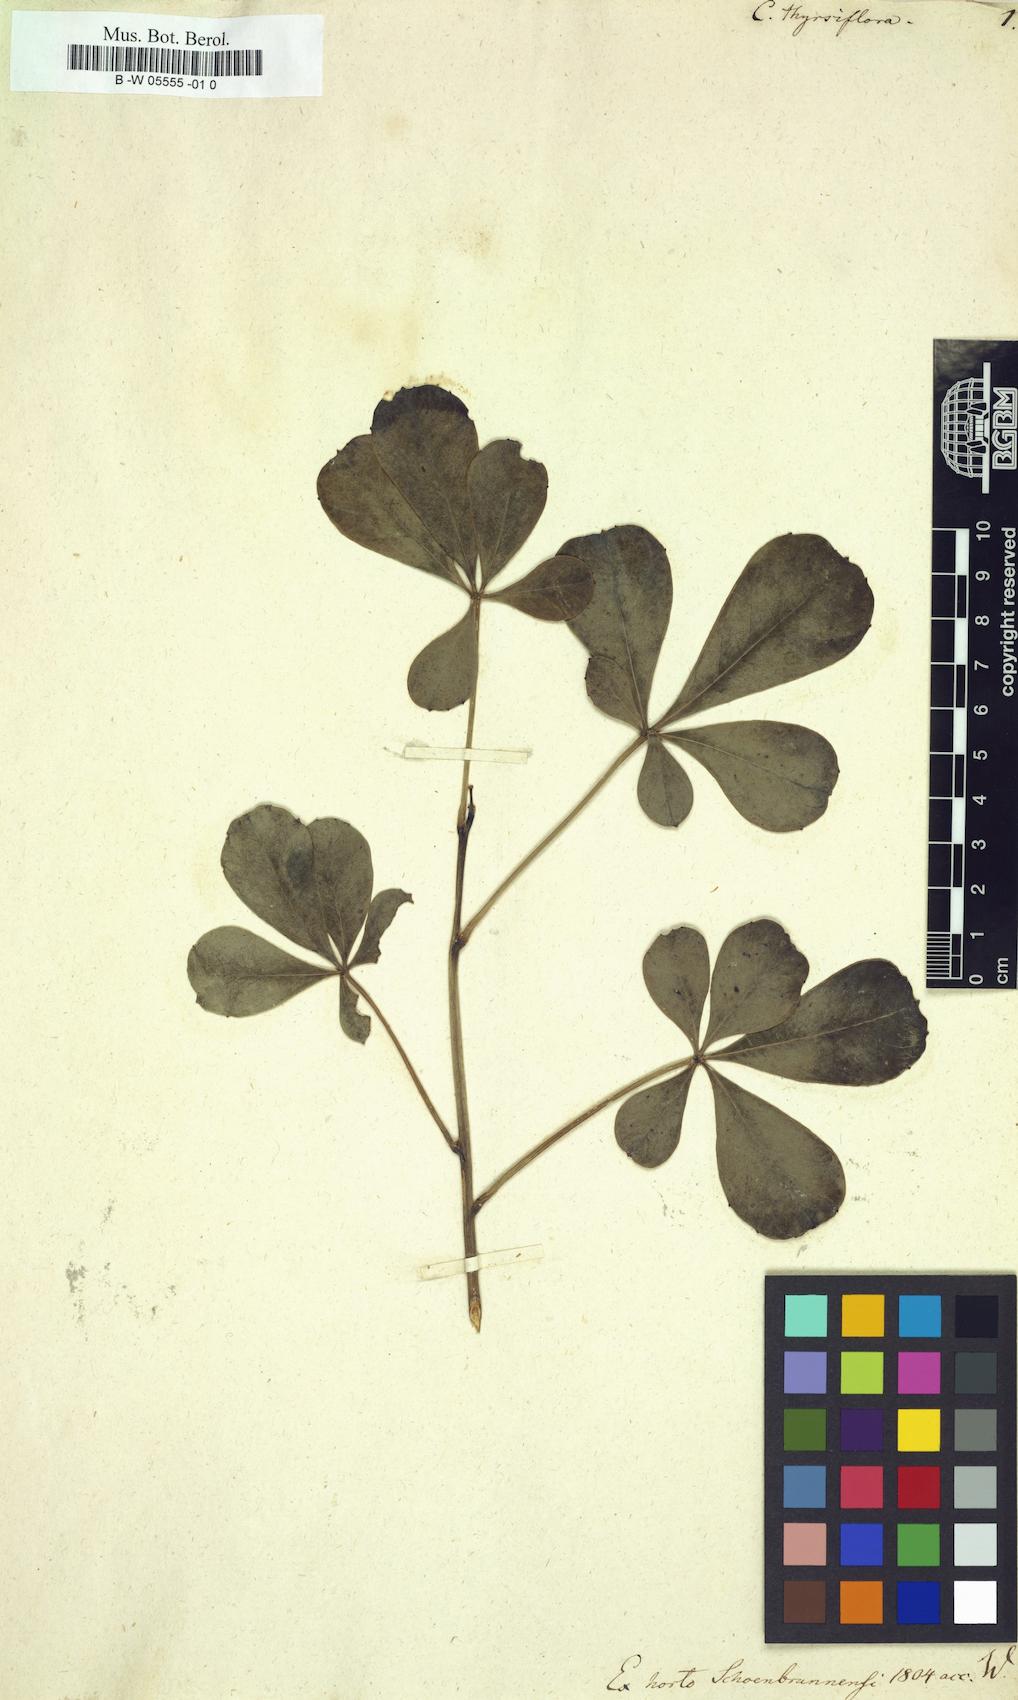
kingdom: Plantae
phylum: Tracheophyta
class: Magnoliopsida
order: Apiales
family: Araliaceae
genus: Cussonia
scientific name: Cussonia thyrsiflora
